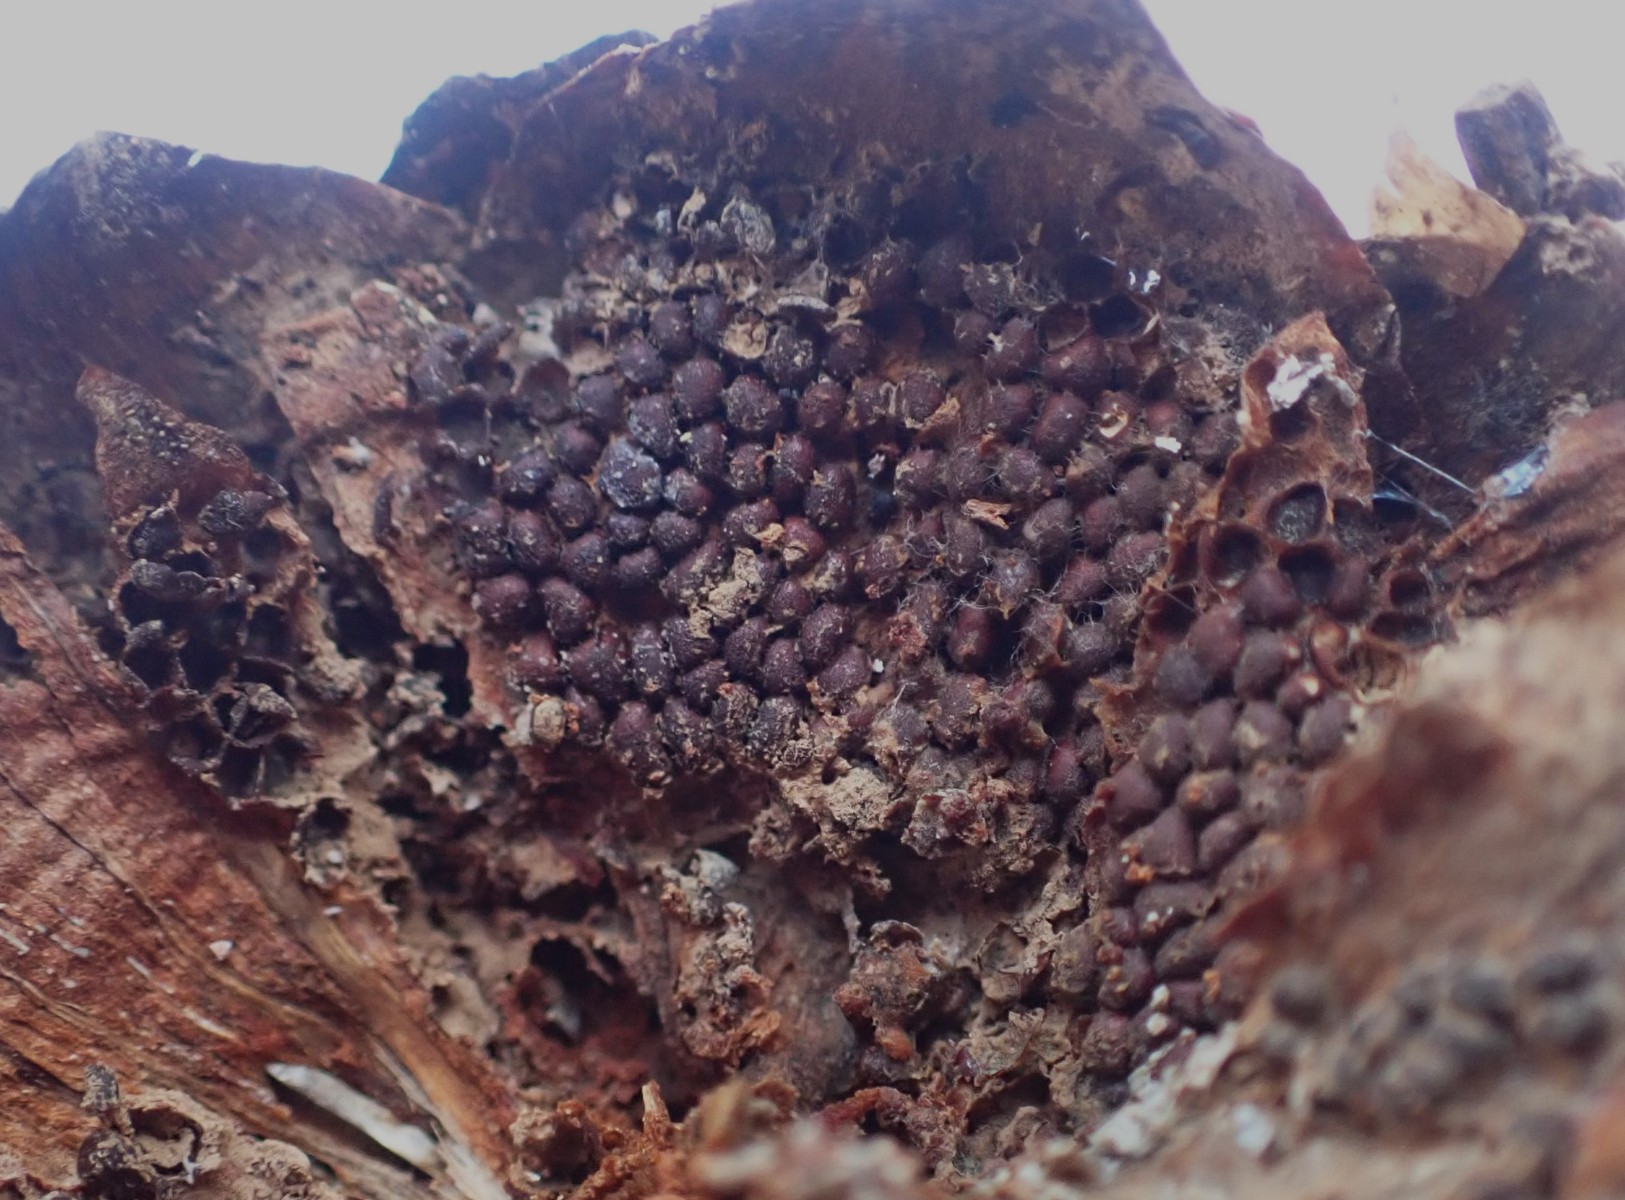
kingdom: Fungi
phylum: Basidiomycota
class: Pucciniomycetes
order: Pucciniales
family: Pucciniastraceae
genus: Thekopsora
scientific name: Thekopsora areolata
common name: grankogle-nålerust
